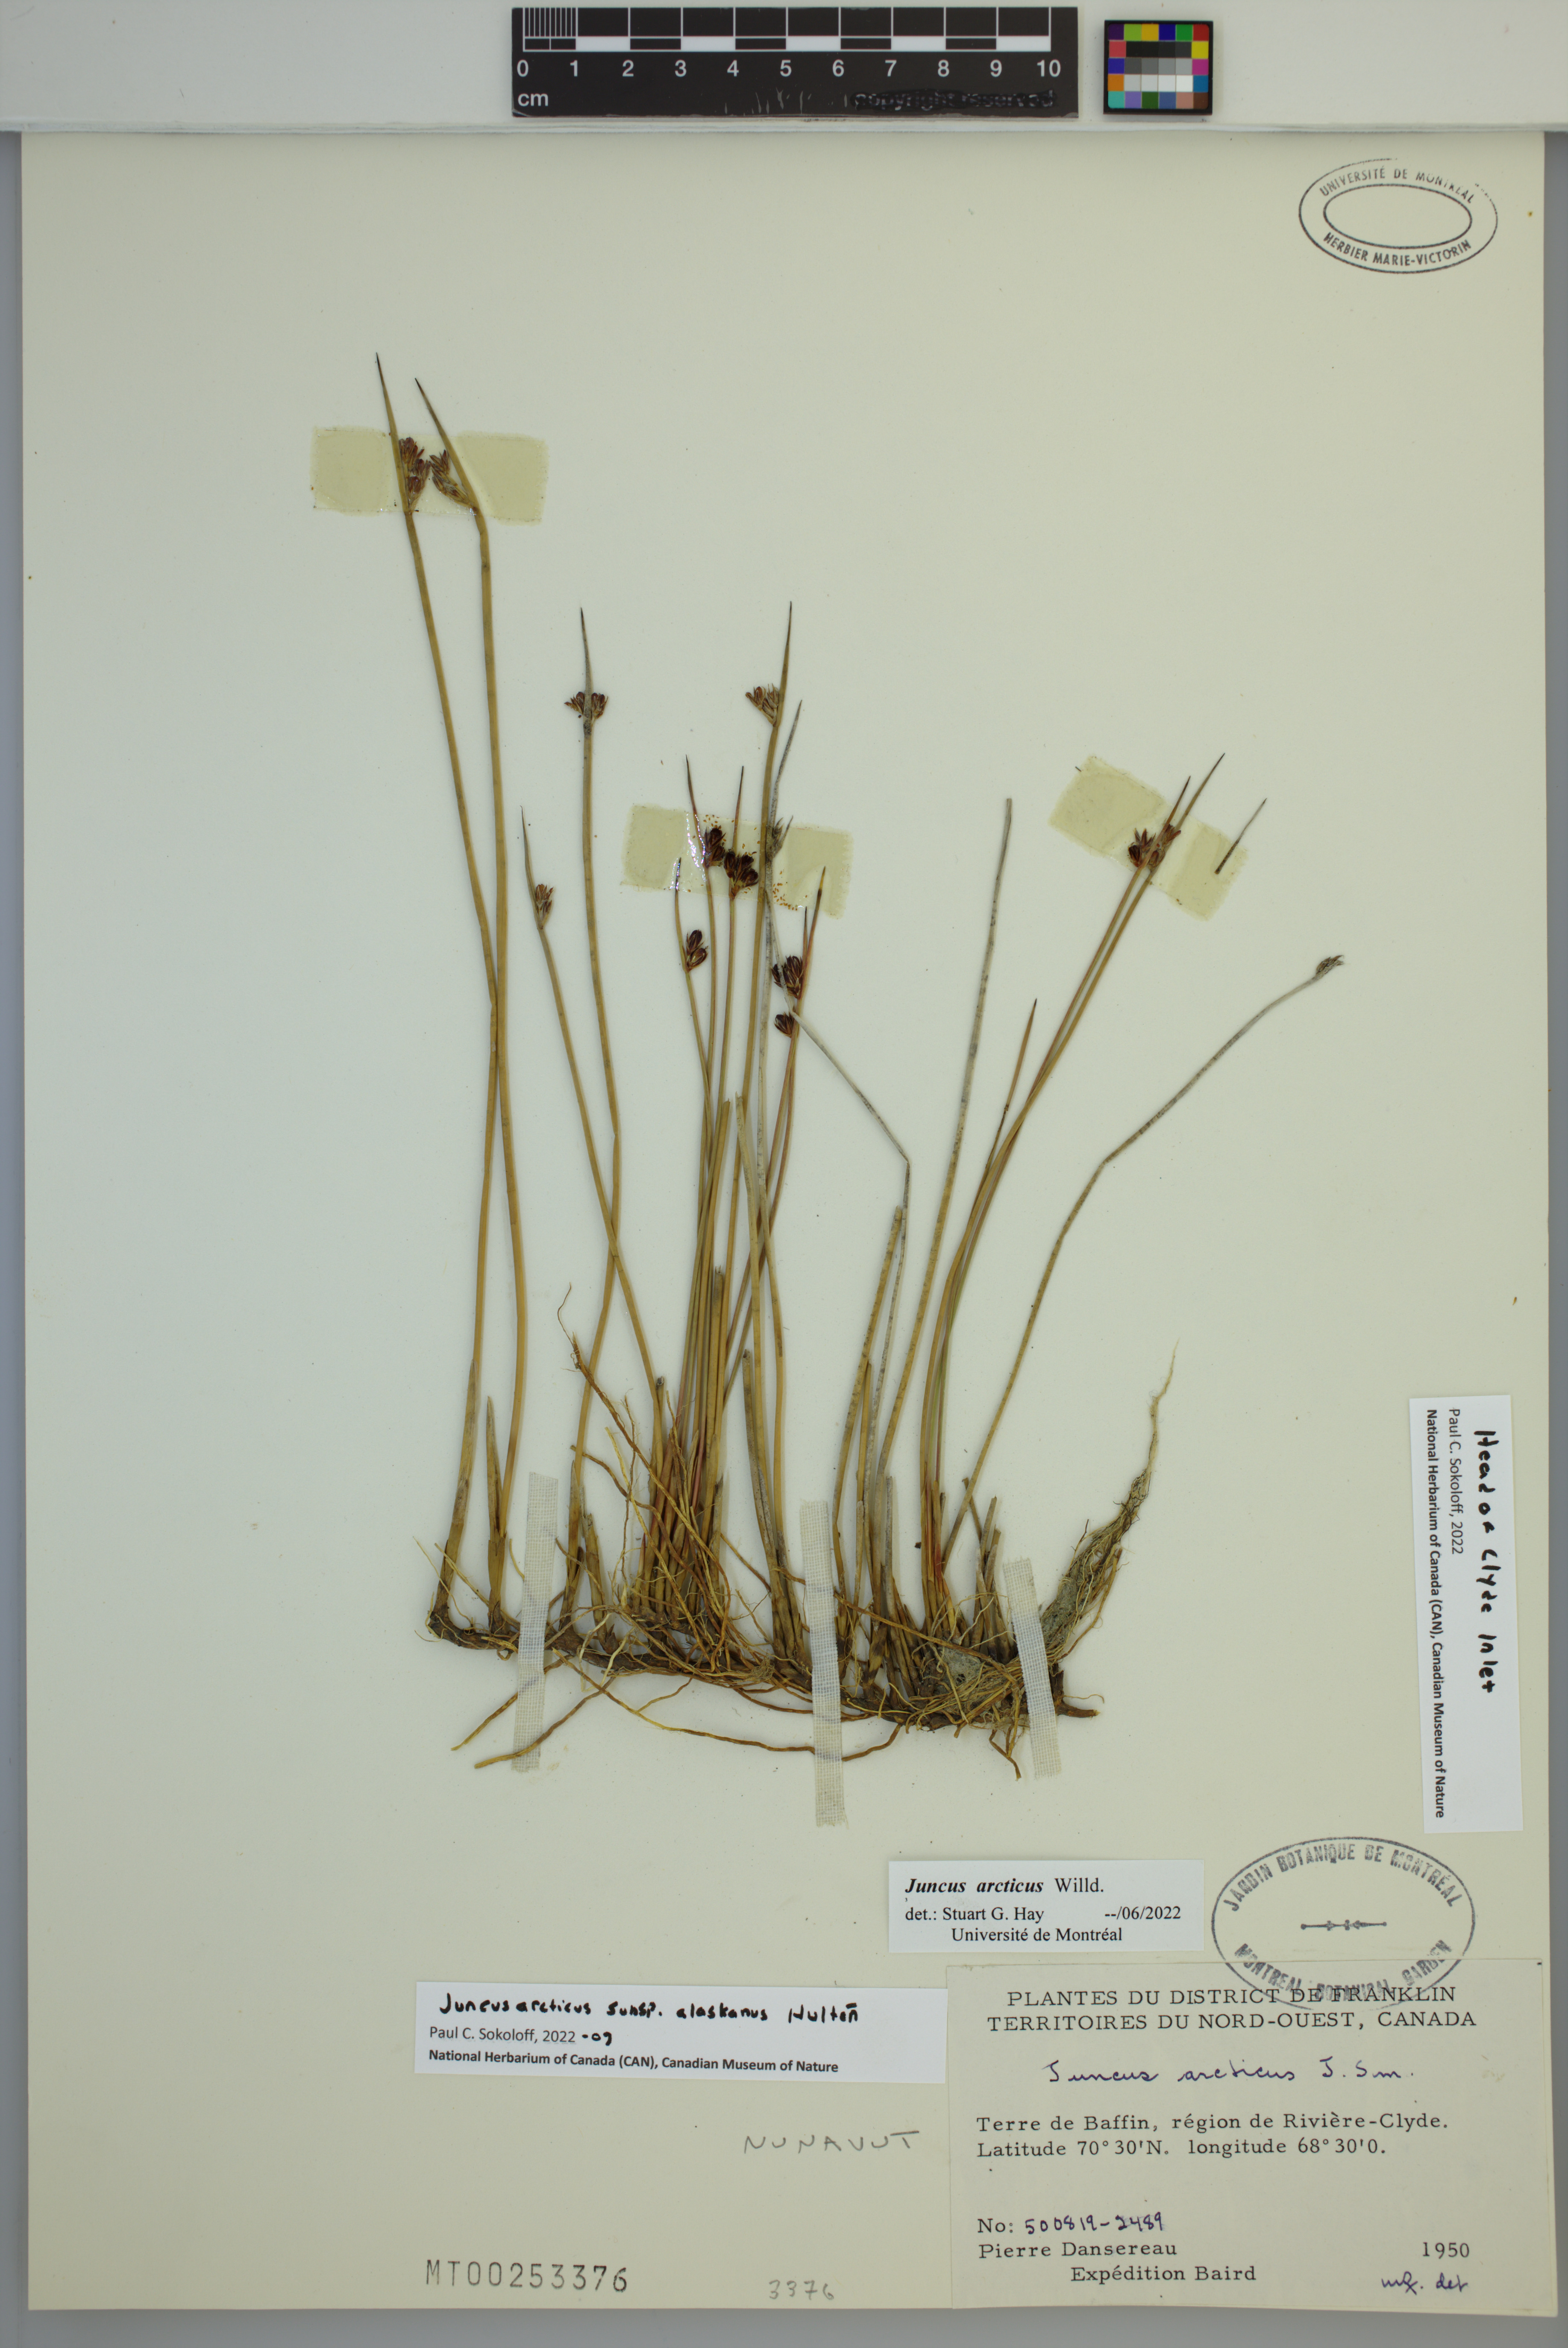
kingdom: Plantae
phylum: Tracheophyta
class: Liliopsida
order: Poales
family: Juncaceae
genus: Juncus
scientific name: Juncus arcticus
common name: Arctic rush
